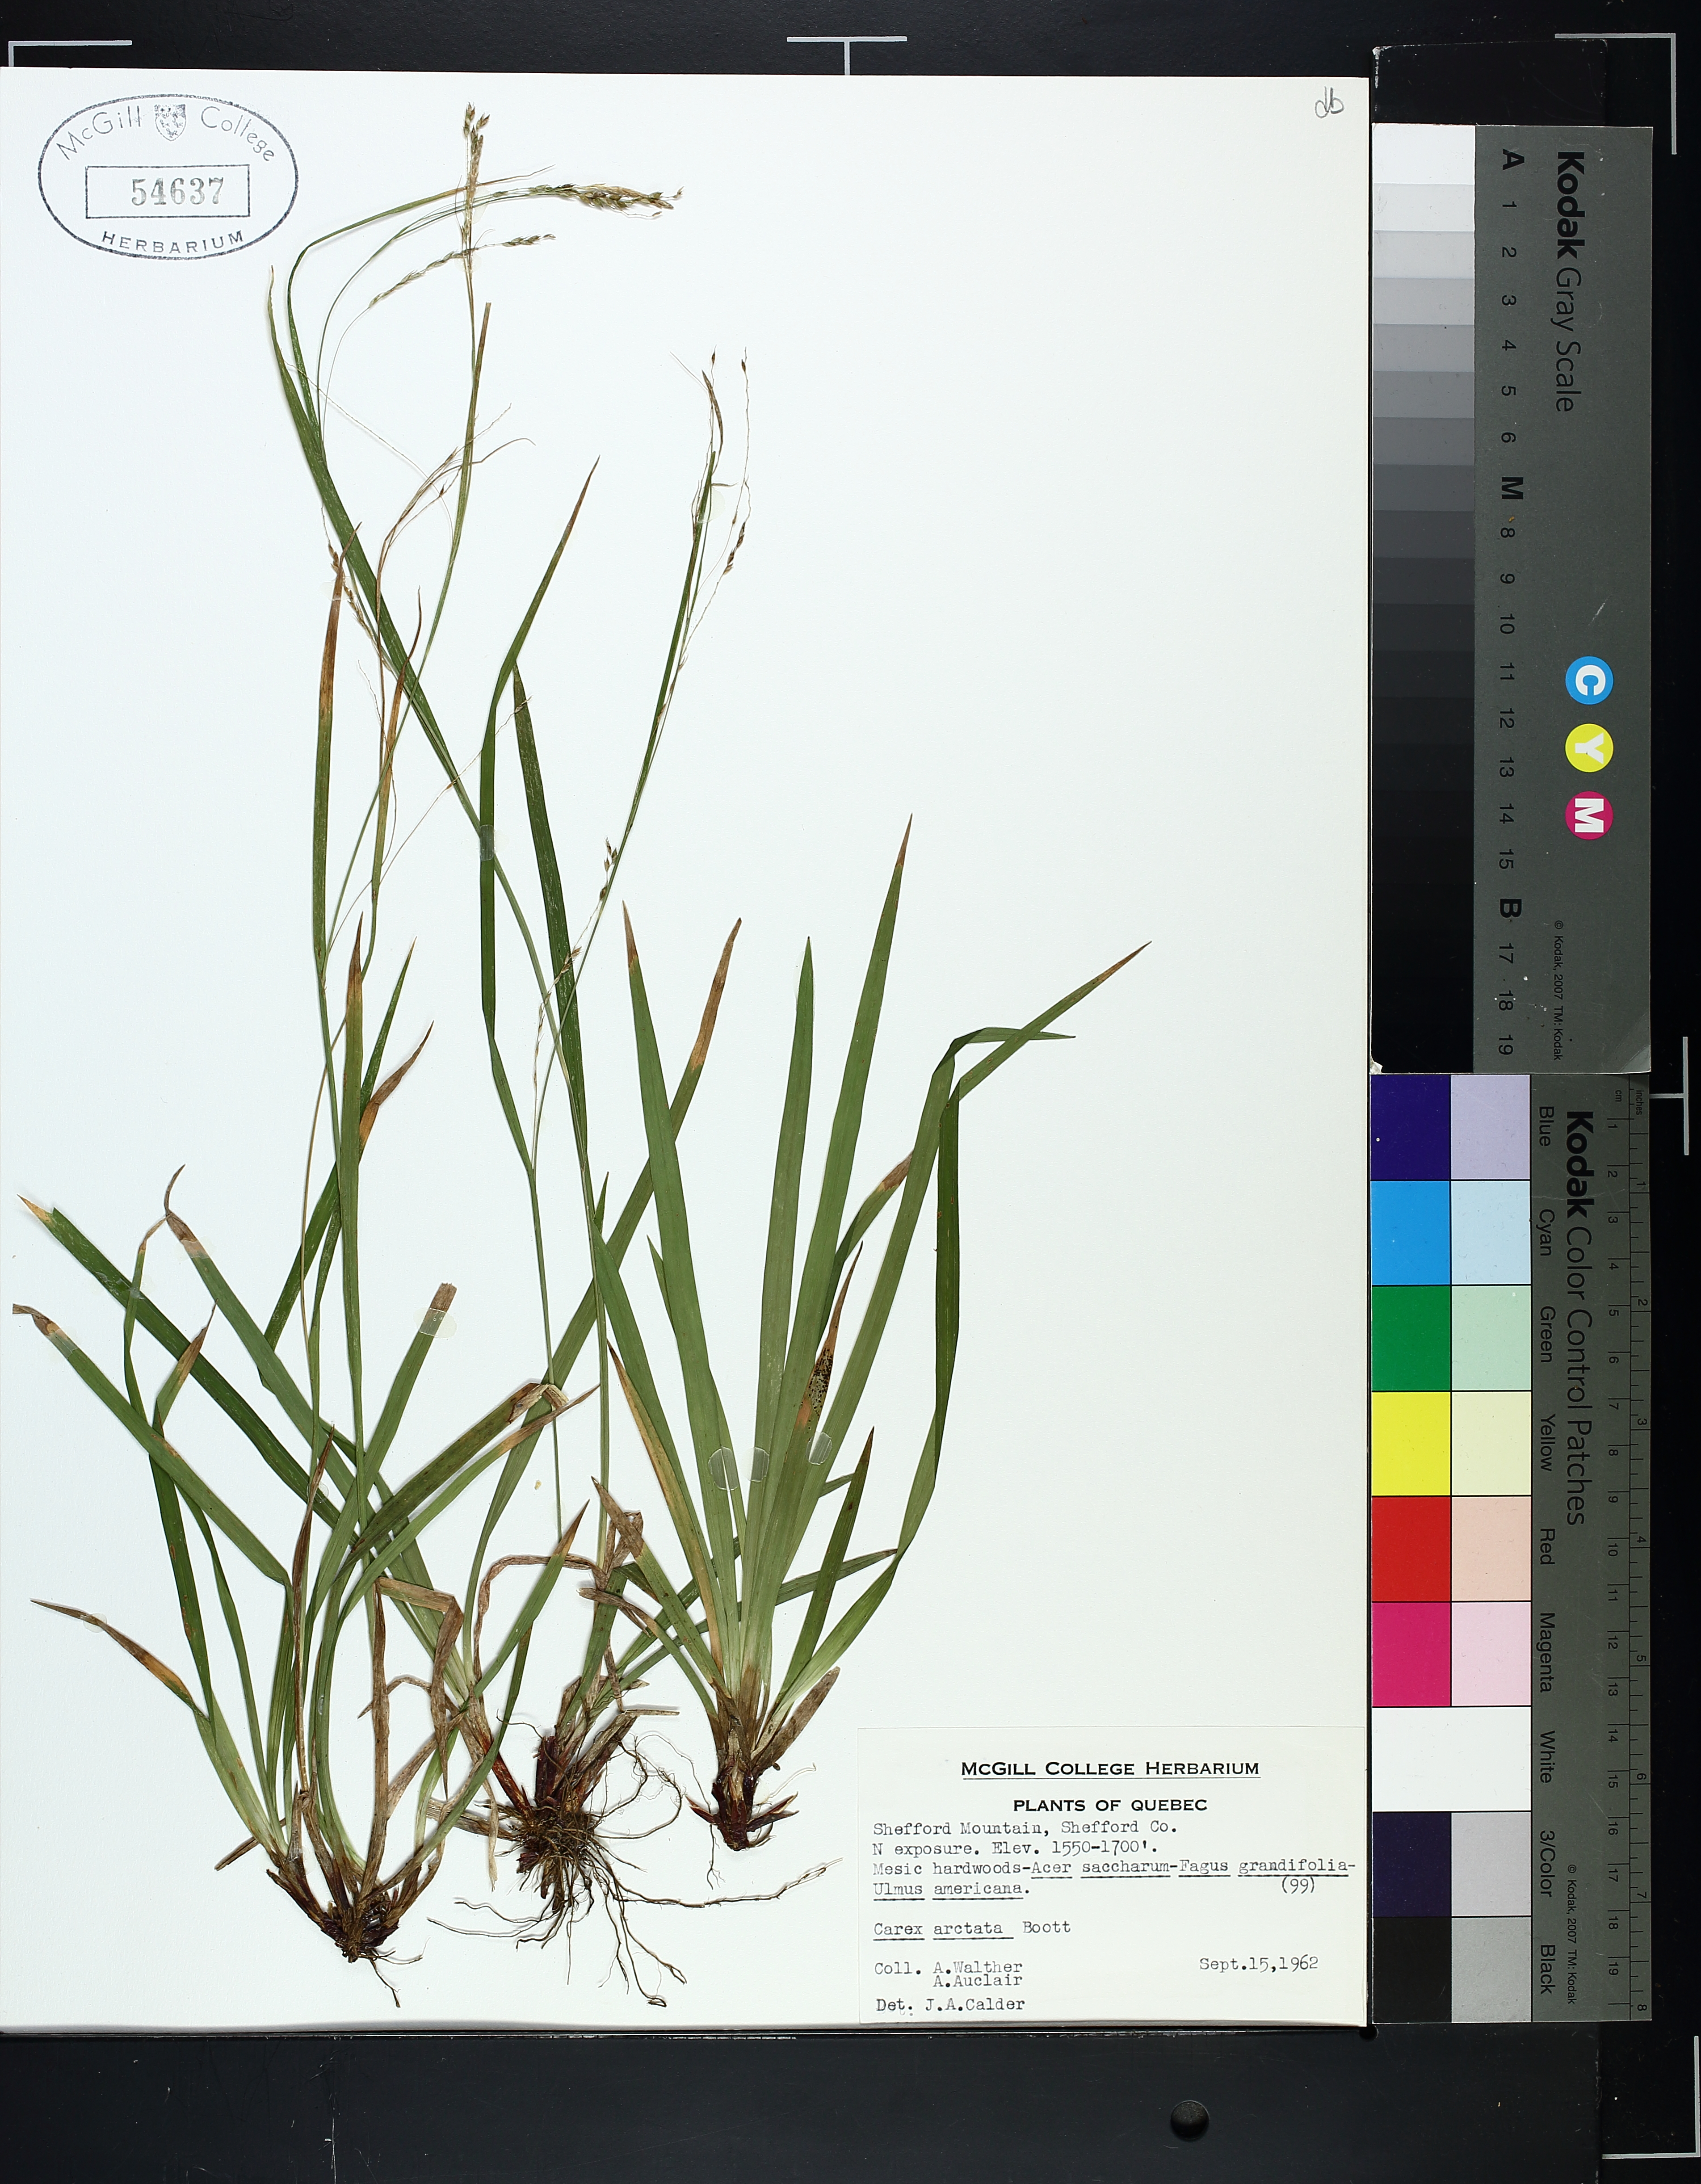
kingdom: Plantae
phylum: Tracheophyta
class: Liliopsida
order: Poales
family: Cyperaceae
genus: Carex
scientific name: Carex arctata
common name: Black sedge
